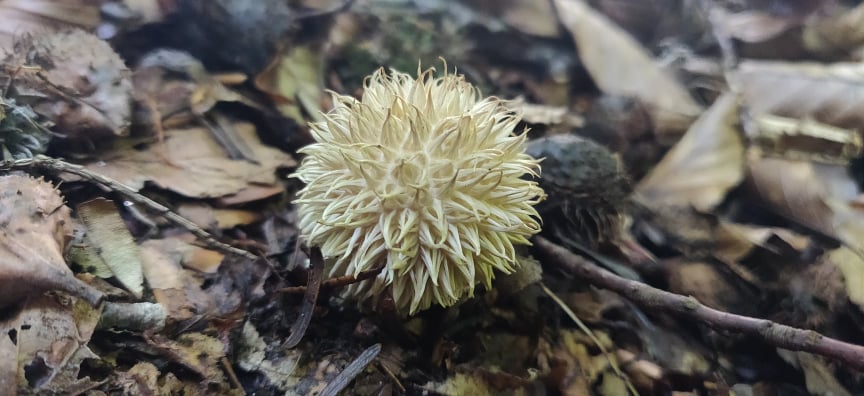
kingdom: Fungi
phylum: Basidiomycota
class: Agaricomycetes
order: Agaricales
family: Lycoperdaceae
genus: Lycoperdon
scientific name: Lycoperdon echinatum
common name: pindsvine-støvbold
